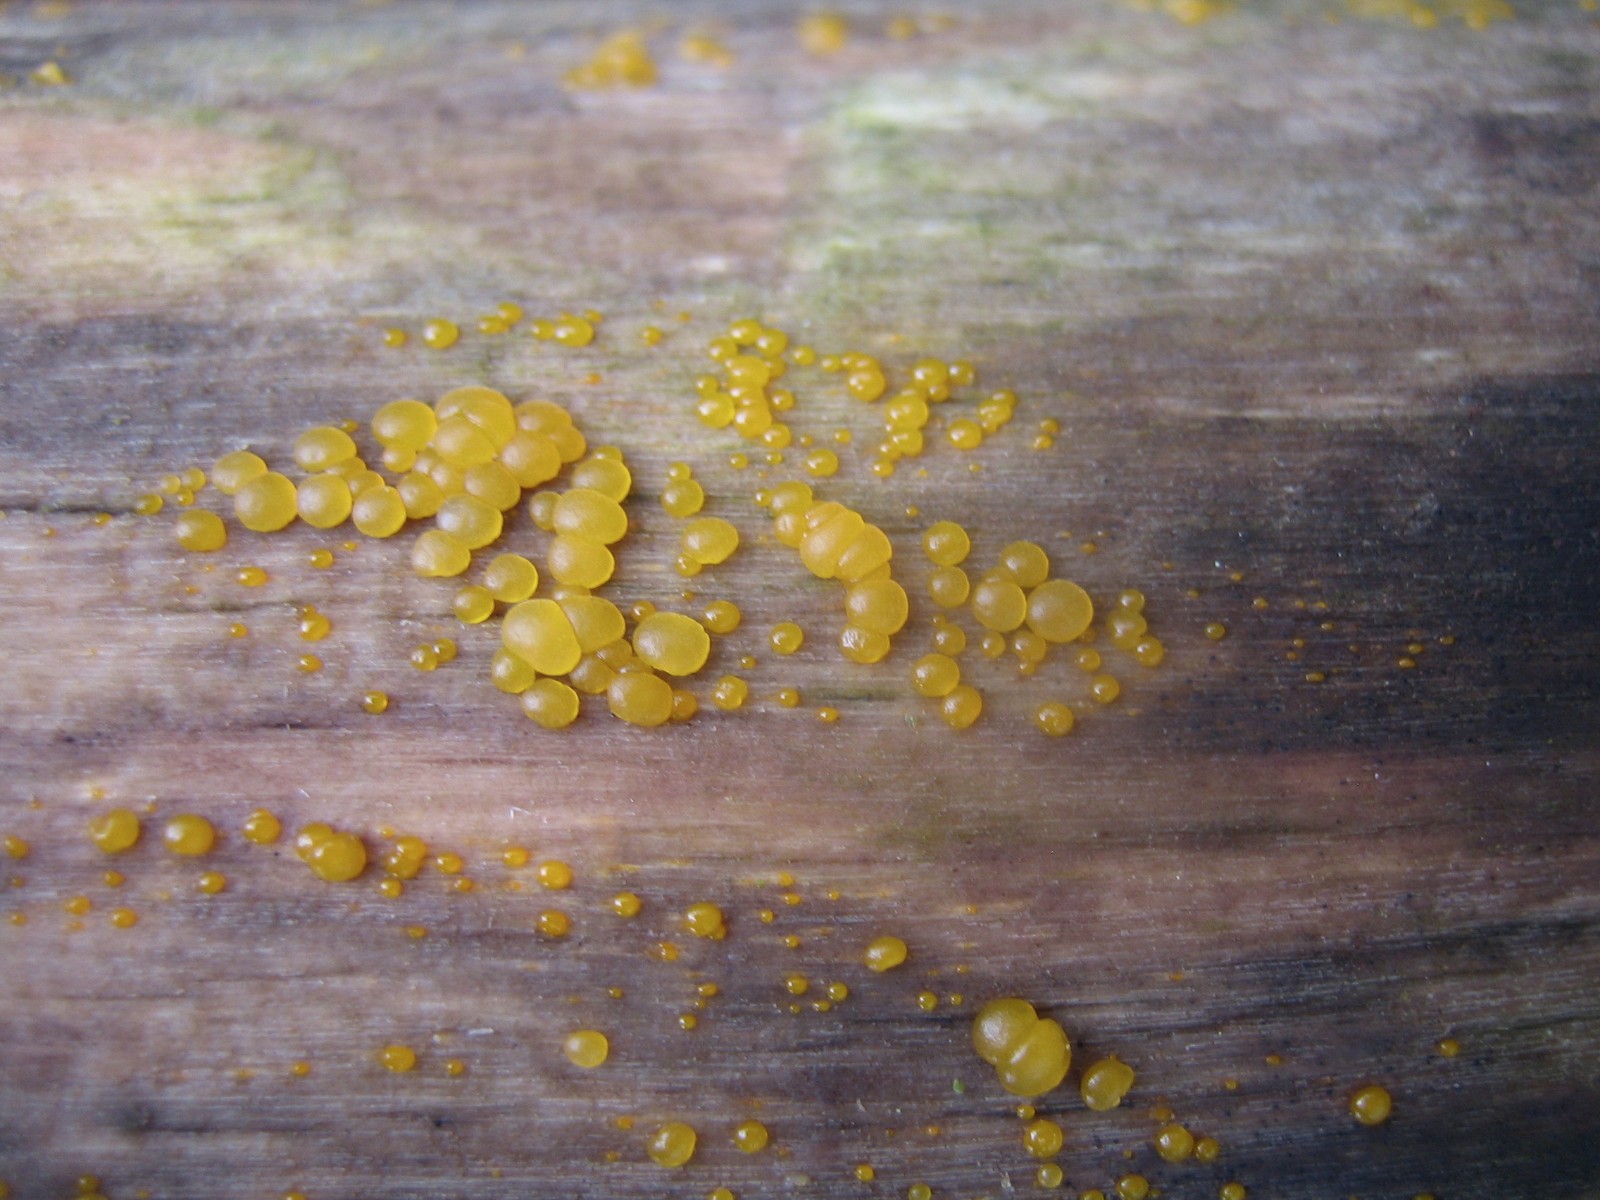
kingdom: Fungi
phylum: Basidiomycota
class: Dacrymycetes
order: Dacrymycetales
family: Dacrymycetaceae
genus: Dacrymyces
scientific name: Dacrymyces
